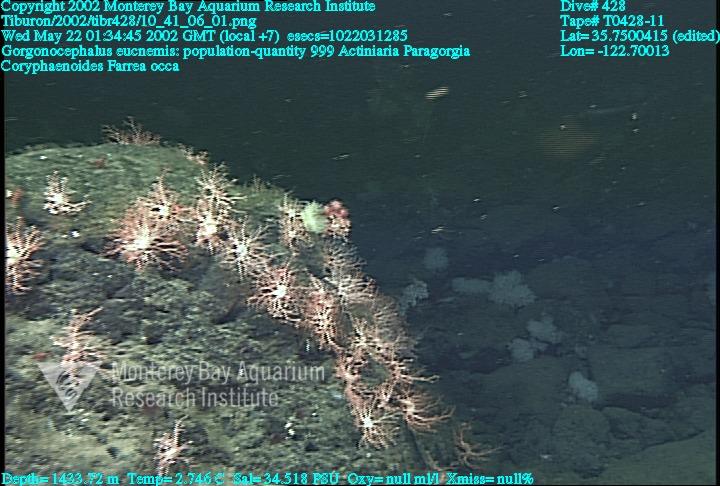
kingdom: Animalia
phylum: Porifera
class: Hexactinellida
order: Sceptrulophora
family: Farreidae
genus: Farrea
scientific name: Farrea occa
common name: Reversed glass sponge
